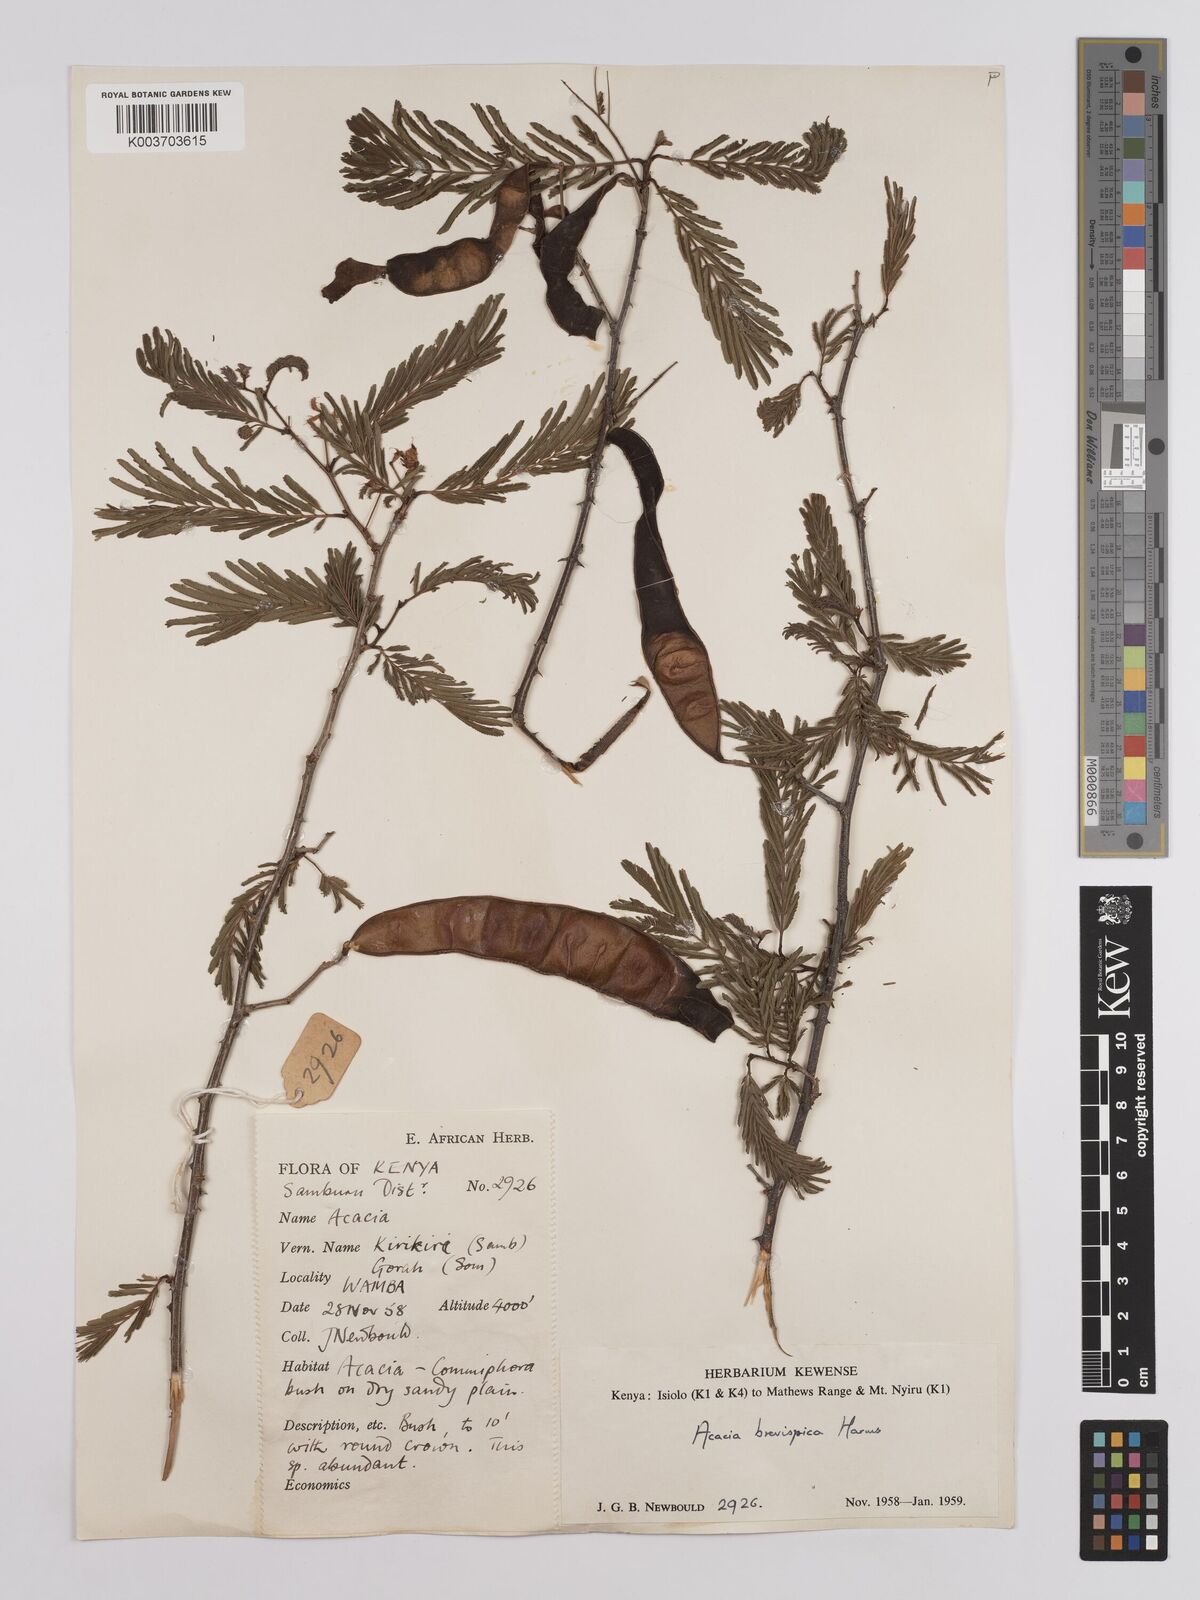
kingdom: Plantae
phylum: Tracheophyta
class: Magnoliopsida
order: Fabales
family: Fabaceae
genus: Senegalia
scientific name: Senegalia brevispica
